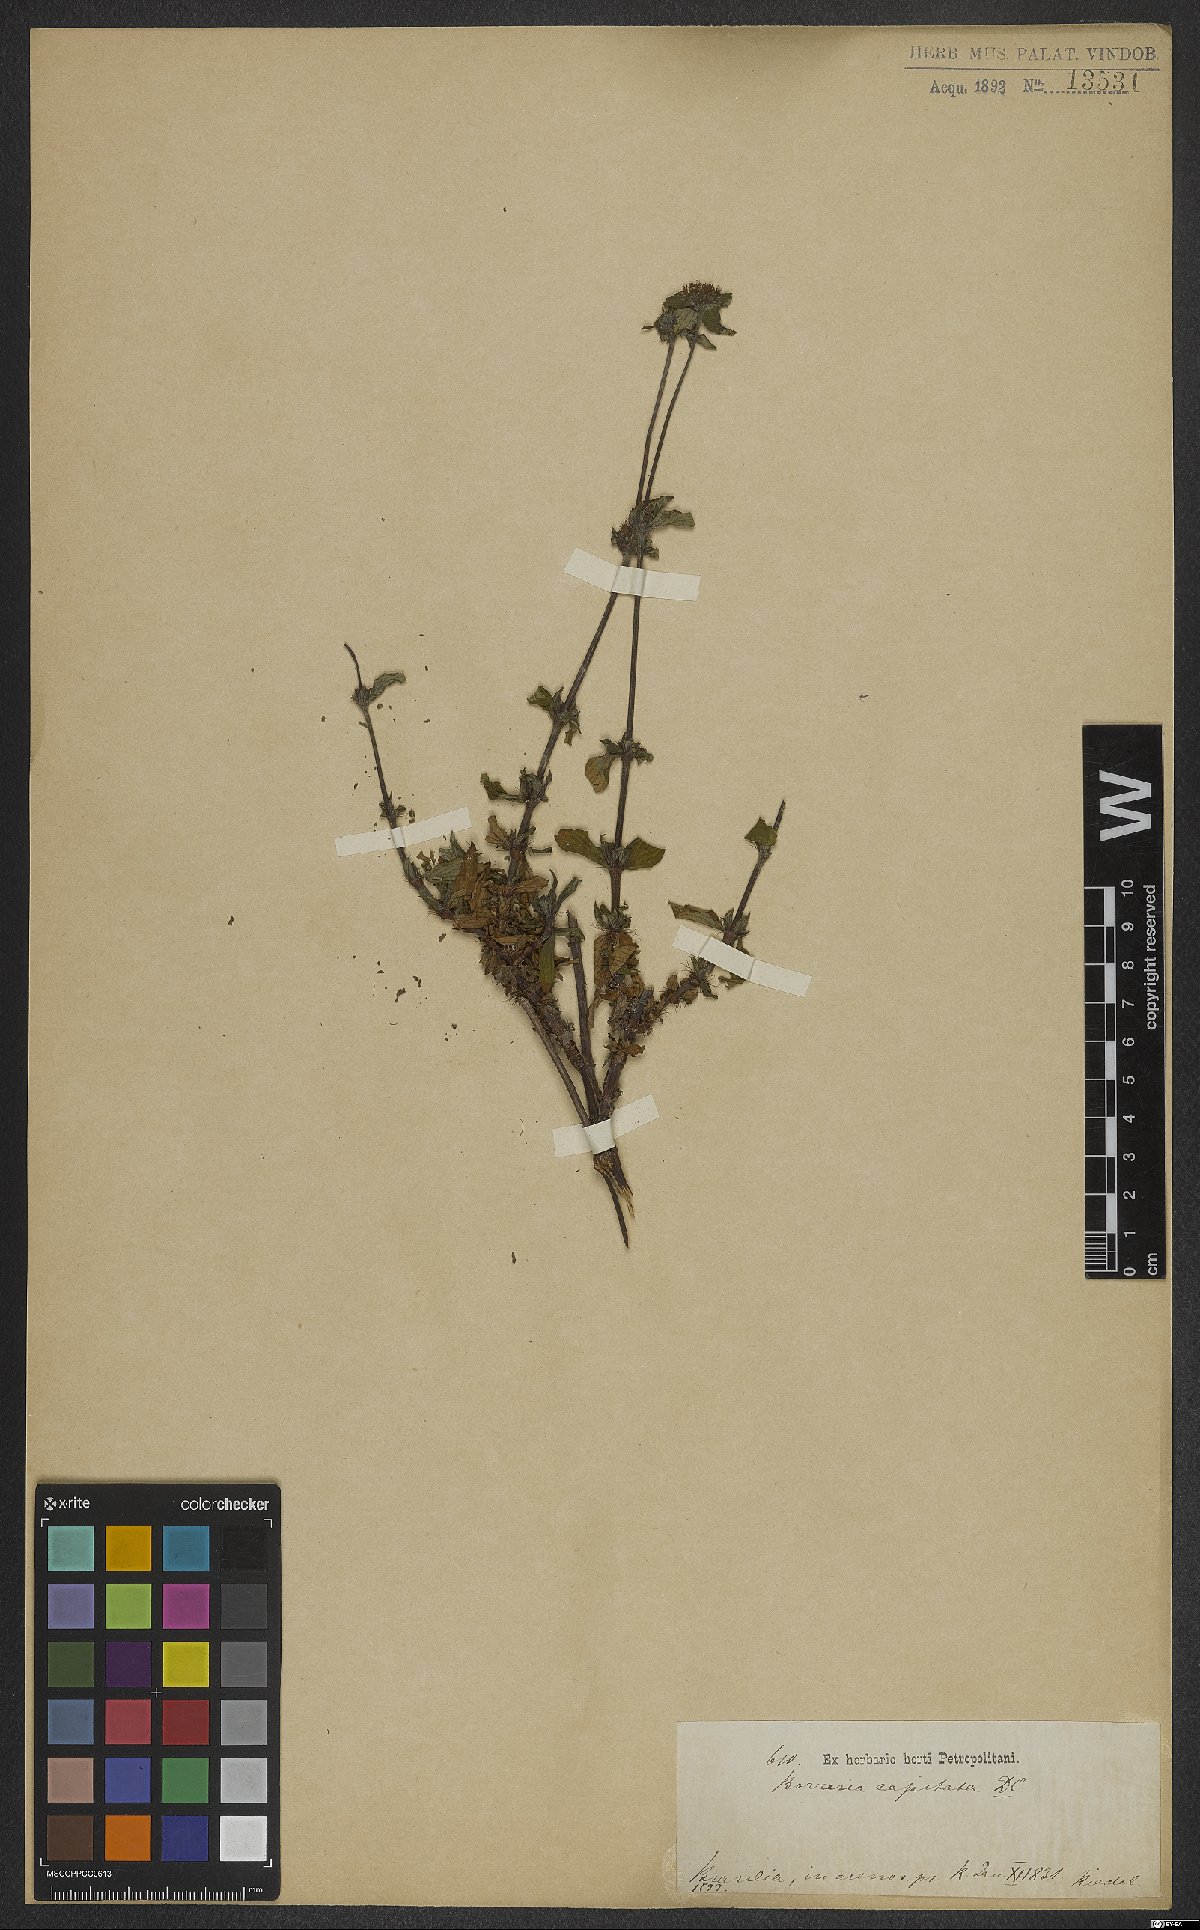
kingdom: Plantae
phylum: Tracheophyta
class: Magnoliopsida
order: Gentianales
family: Rubiaceae
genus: Spermacoce
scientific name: Spermacoce capitata
